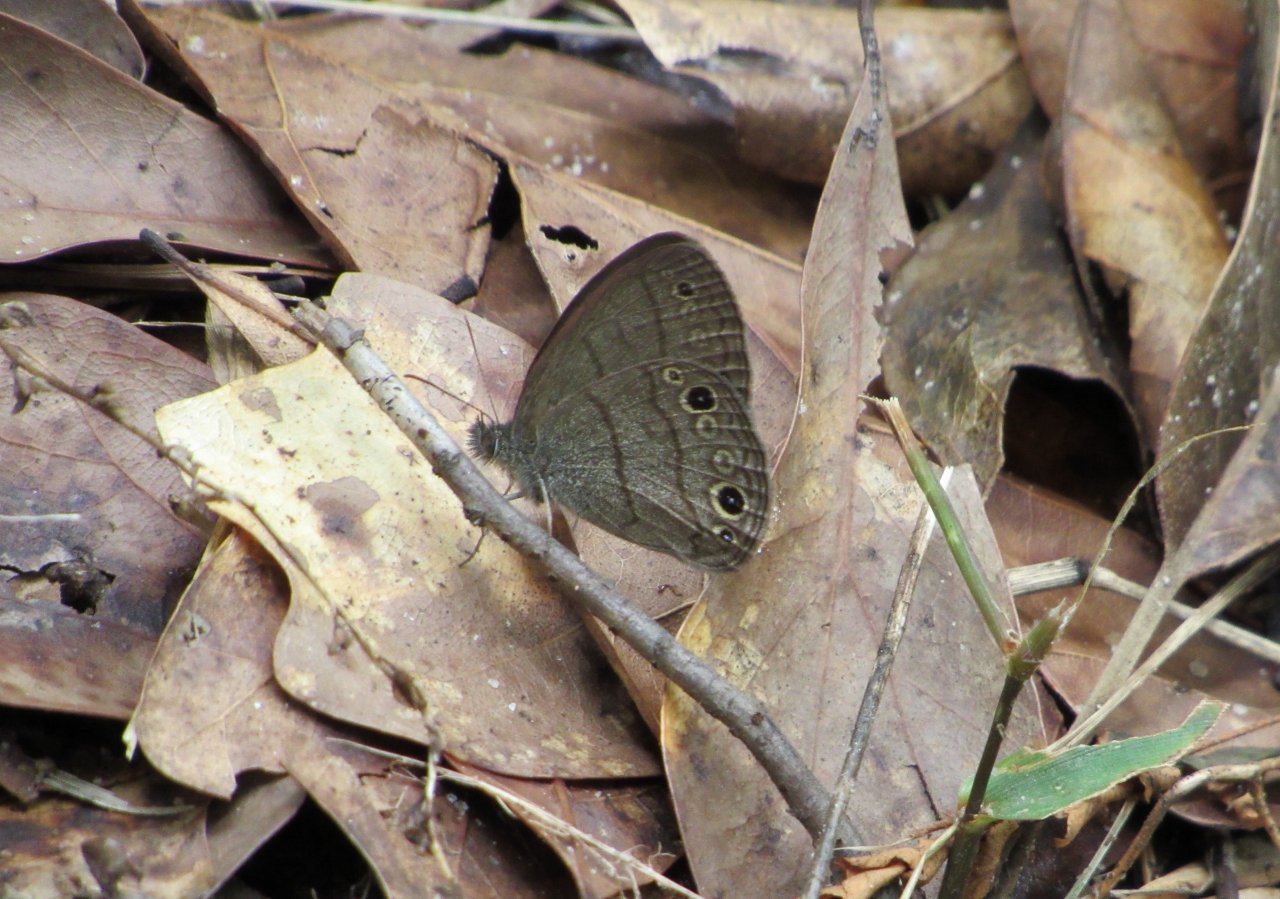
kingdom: Animalia
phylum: Arthropoda
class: Insecta
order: Lepidoptera
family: Nymphalidae
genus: Hermeuptychia
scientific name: Hermeuptychia hermes
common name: Carolina Satyr
